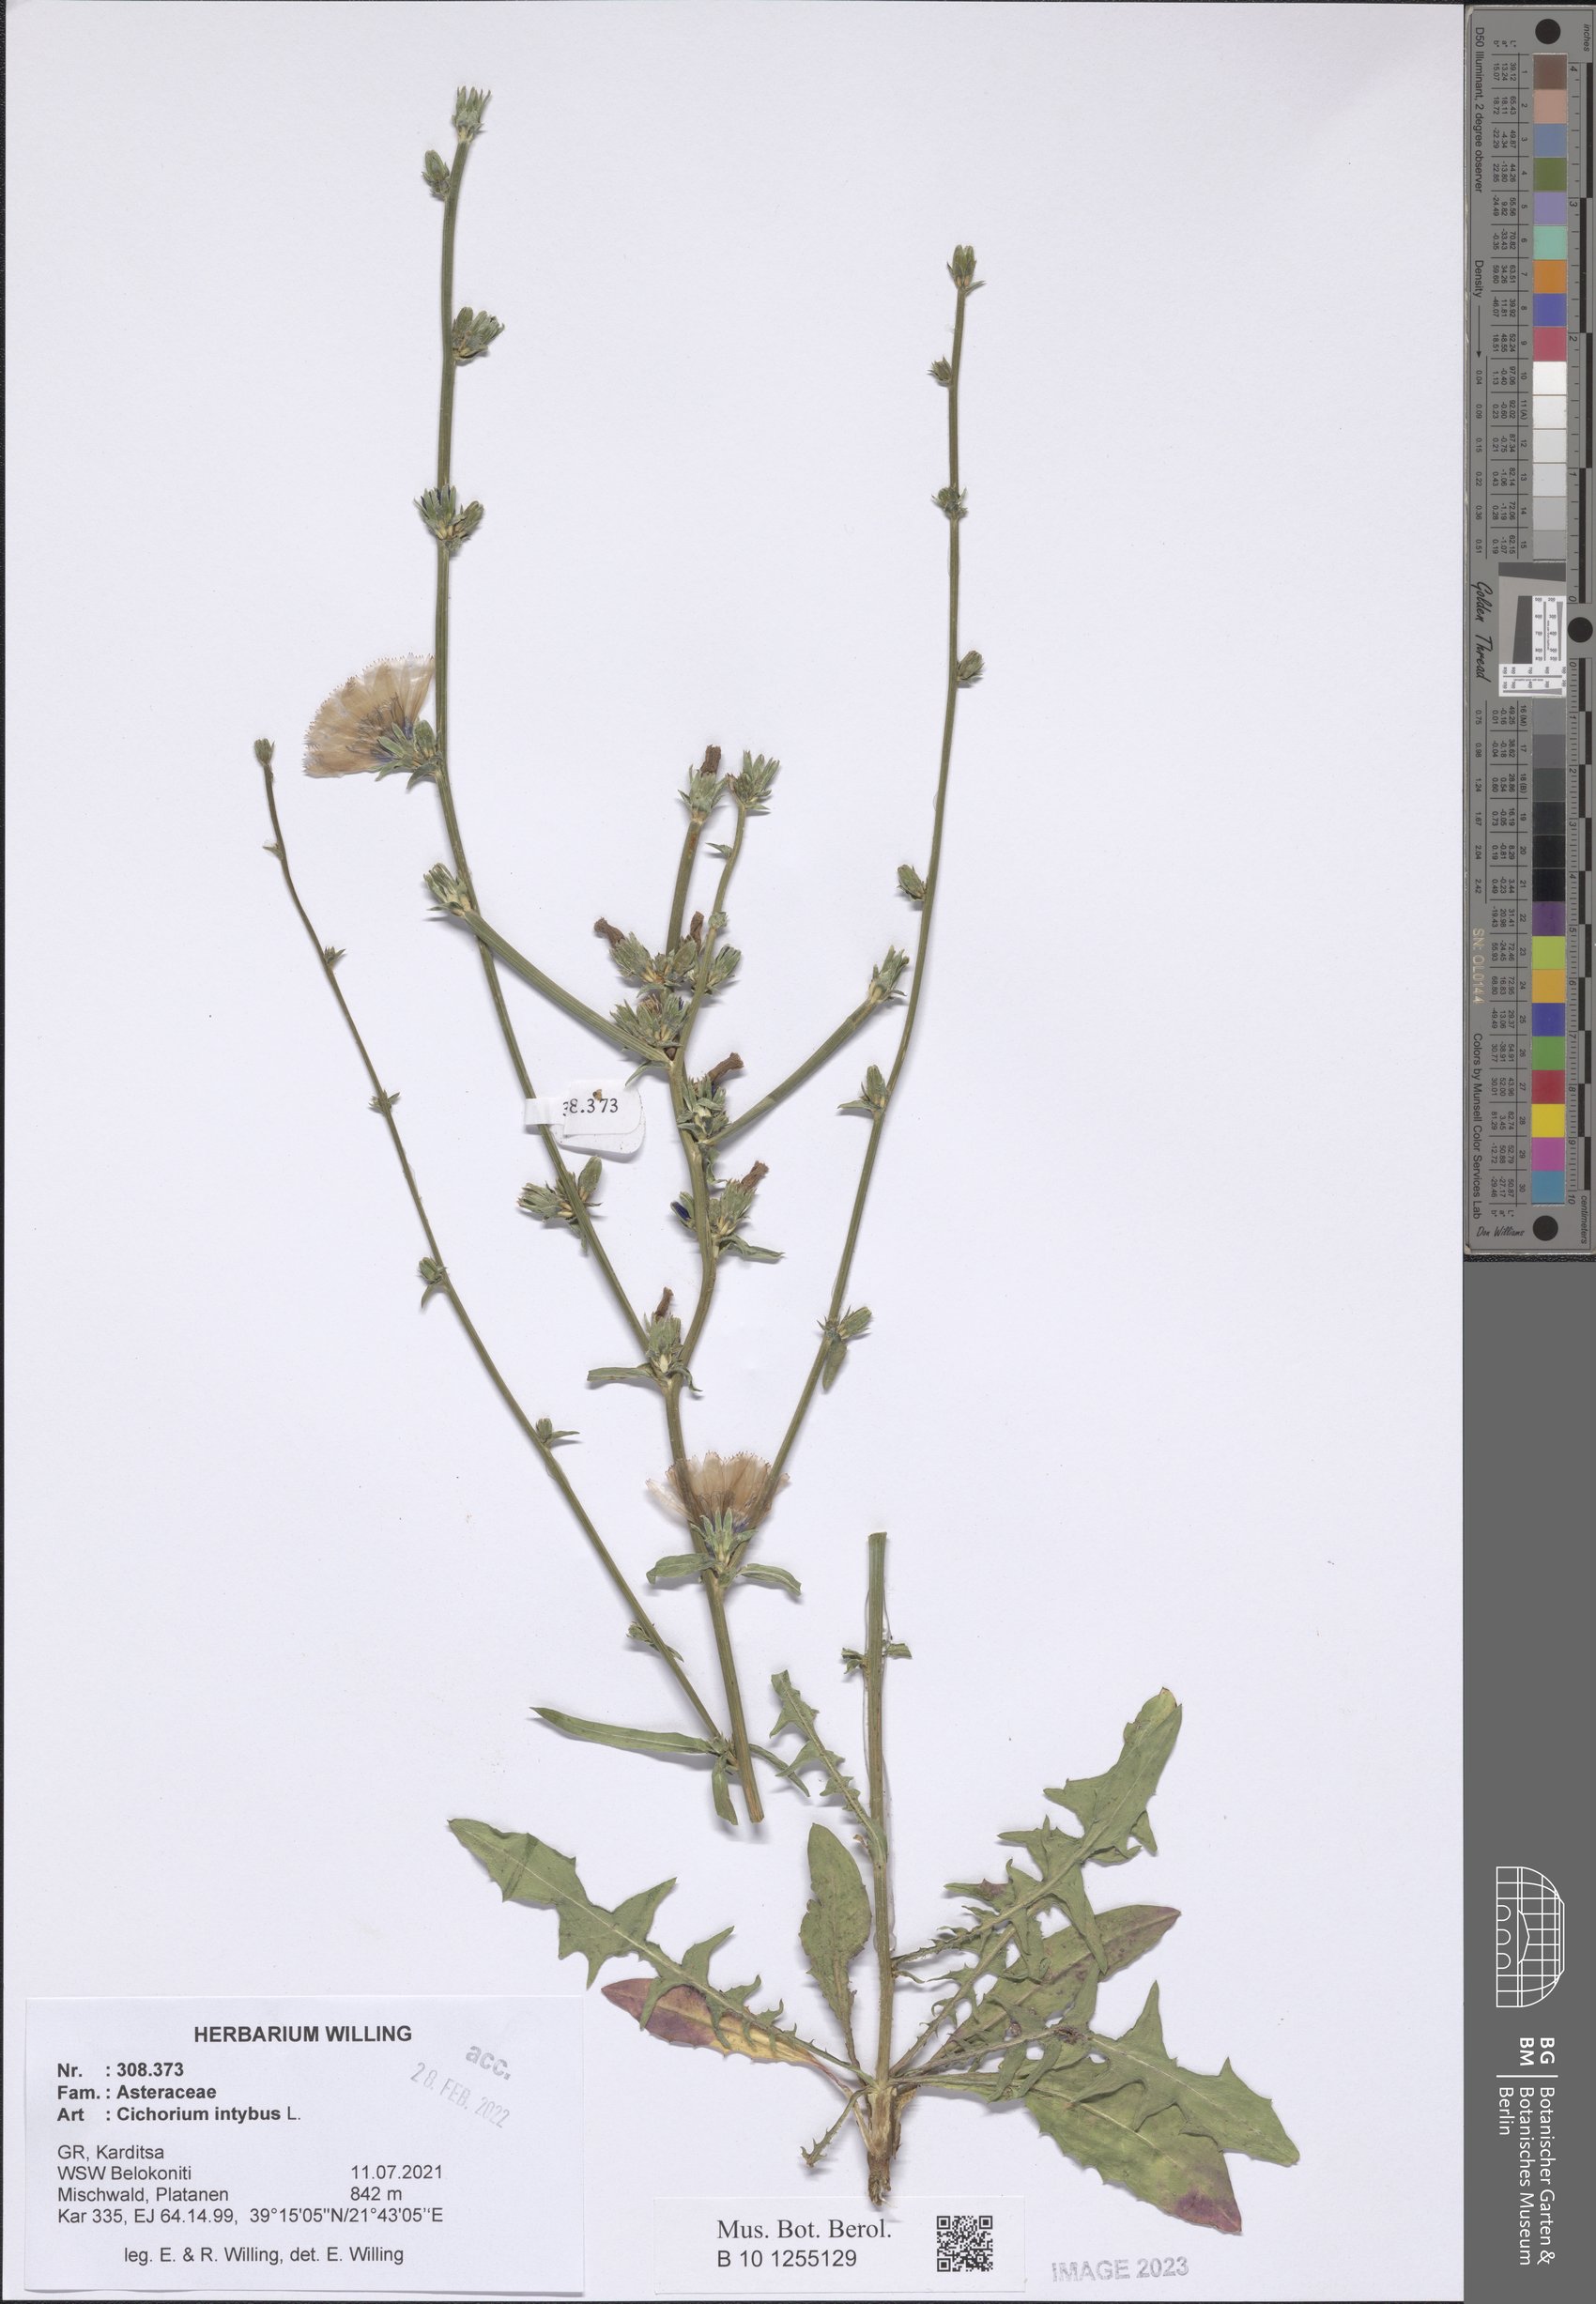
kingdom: Plantae
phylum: Tracheophyta
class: Magnoliopsida
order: Asterales
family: Asteraceae
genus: Cichorium
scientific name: Cichorium intybus
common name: Chicory
